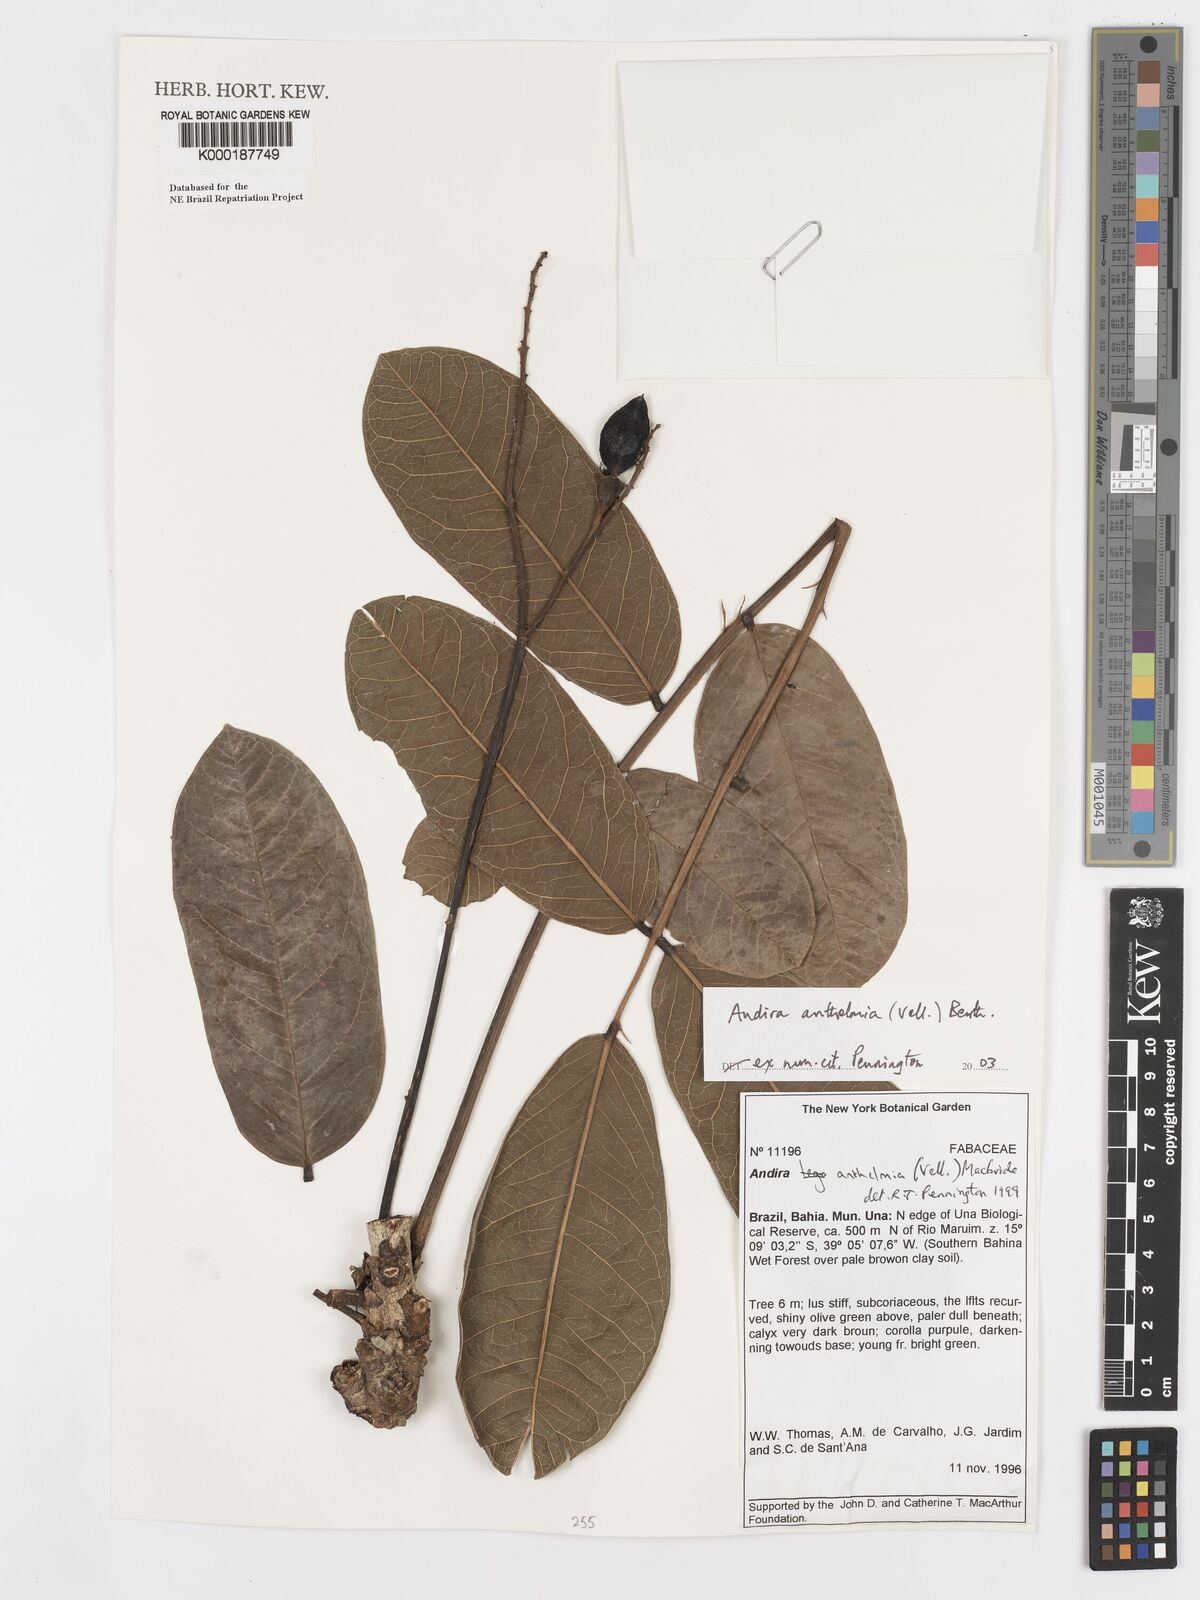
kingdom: Plantae
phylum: Tracheophyta
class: Magnoliopsida
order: Fabales
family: Fabaceae
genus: Andira
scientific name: Andira
